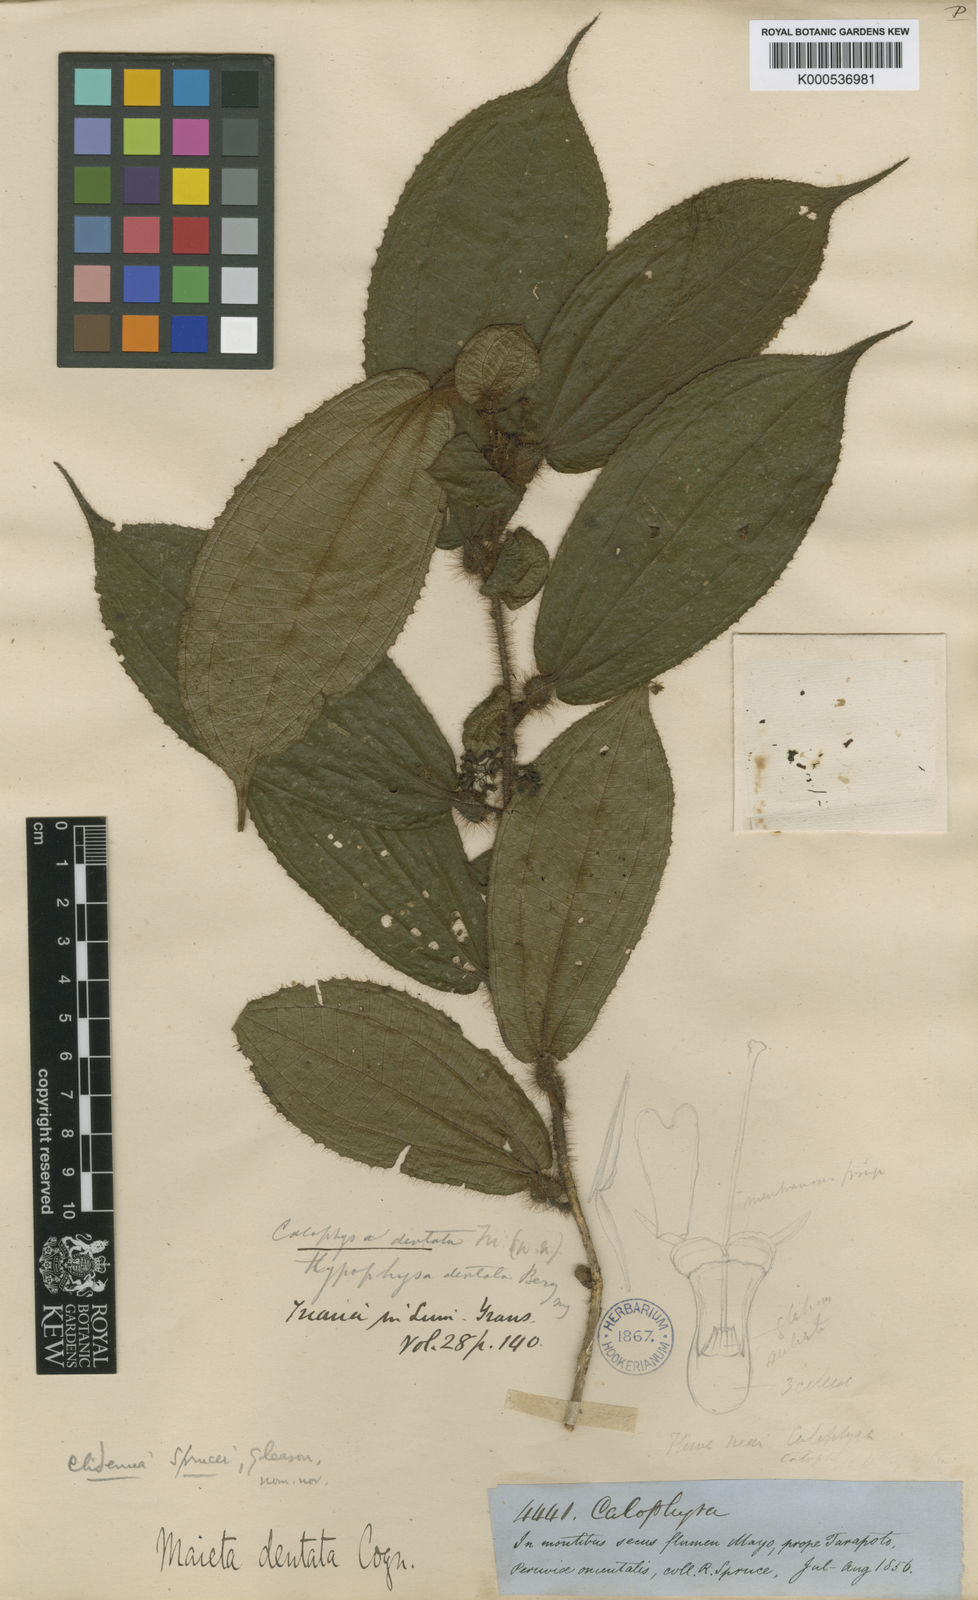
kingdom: Plantae
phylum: Tracheophyta
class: Magnoliopsida
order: Myrtales
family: Melastomataceae
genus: Miconia
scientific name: Miconia richardsprucei
